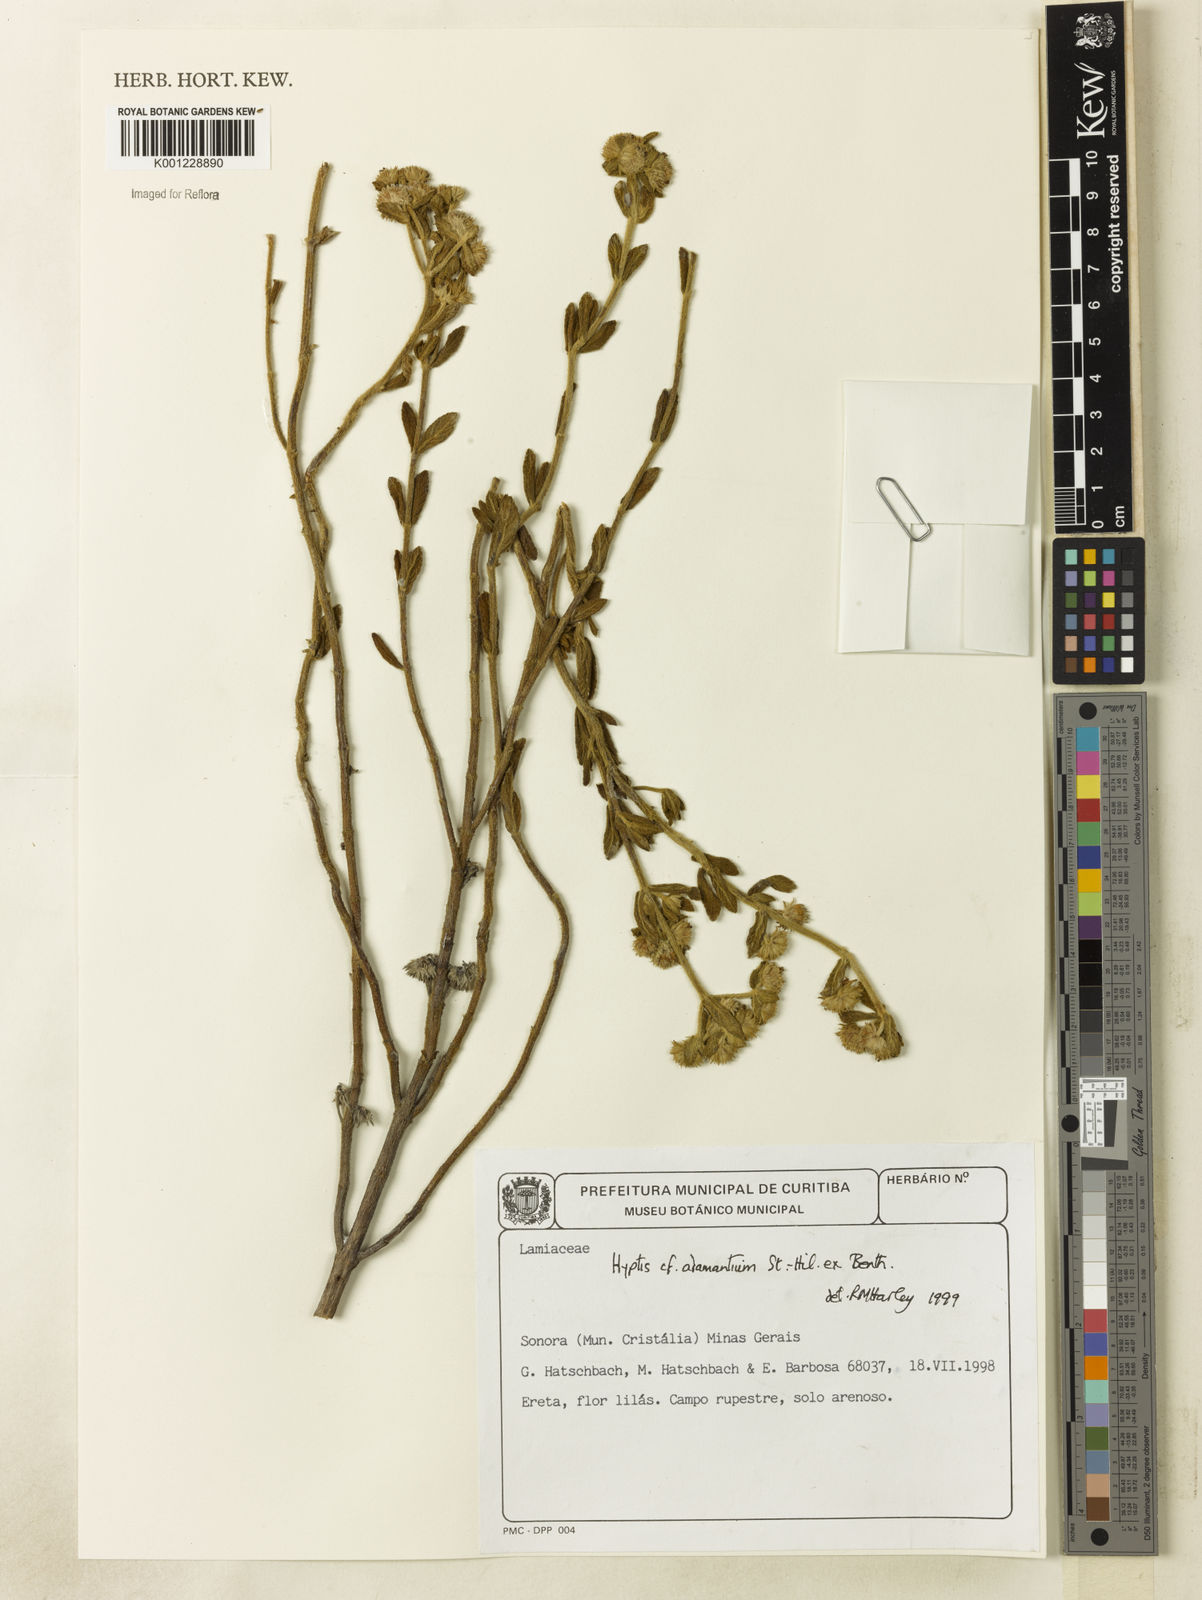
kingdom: Plantae
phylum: Tracheophyta
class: Magnoliopsida
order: Lamiales
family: Lamiaceae
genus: Hyptis
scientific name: Hyptis adamantium
